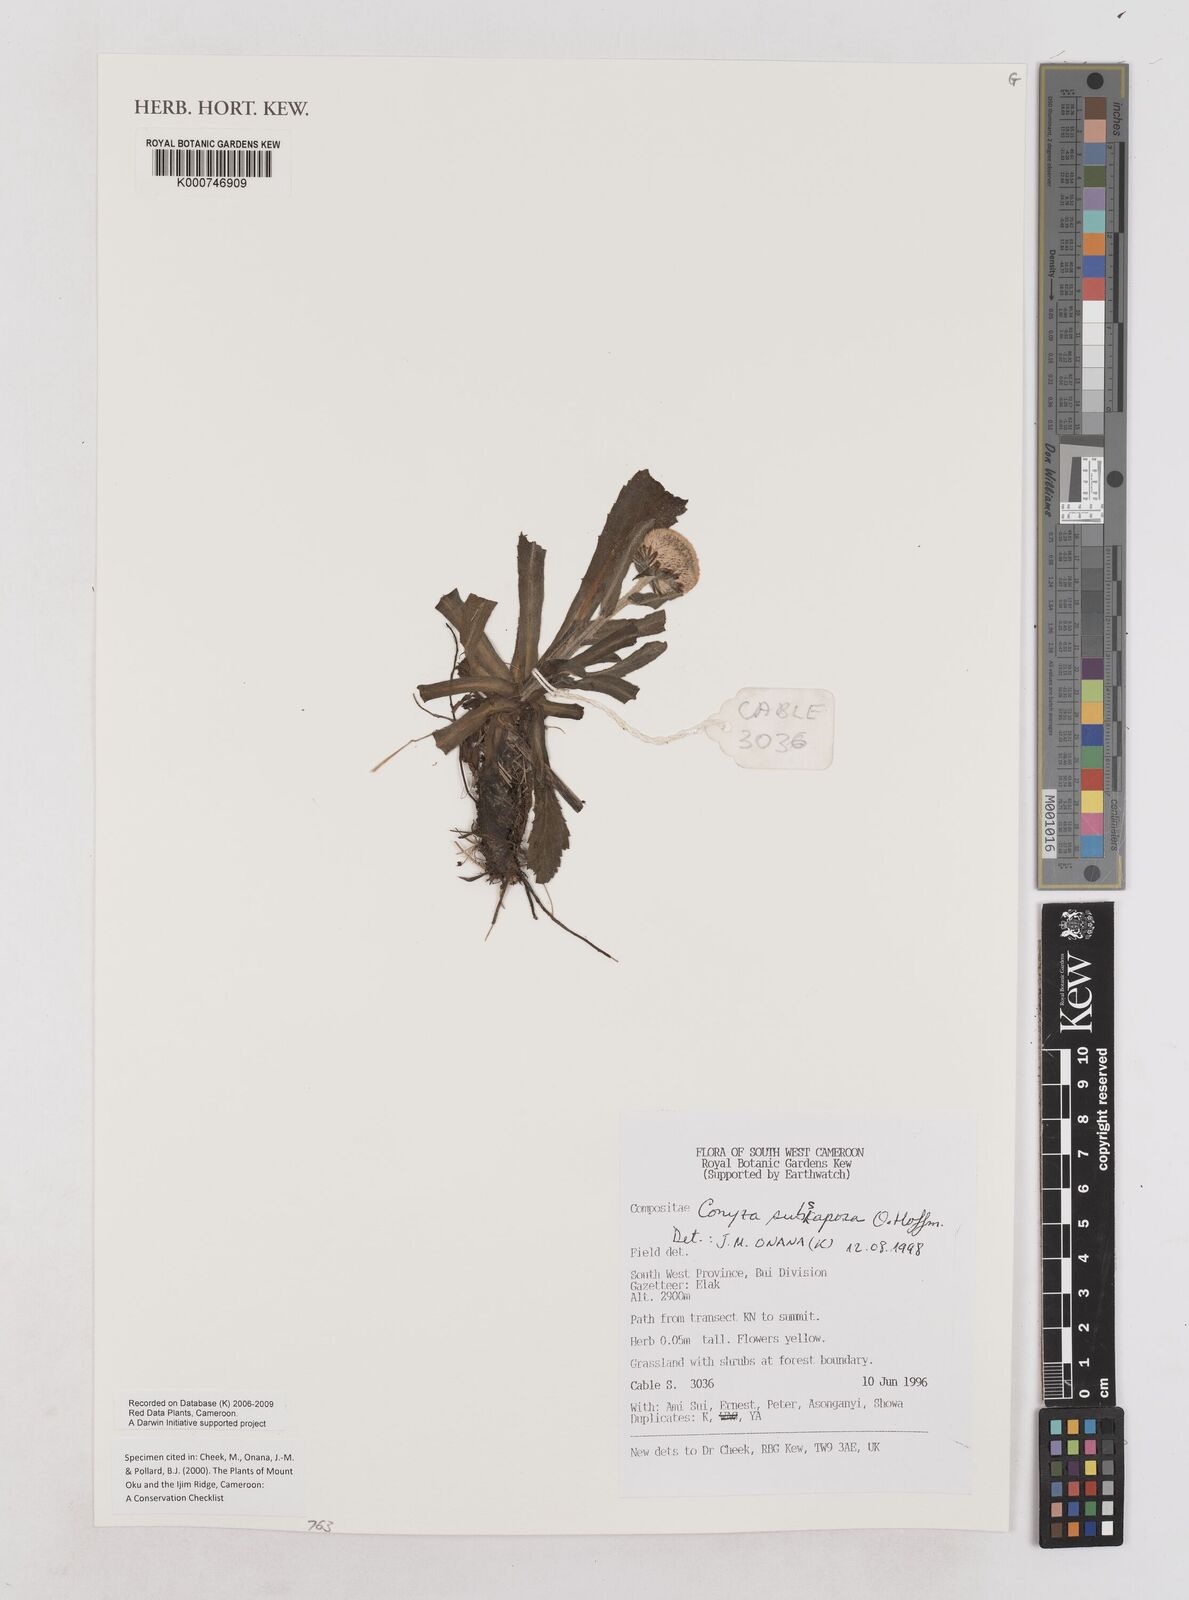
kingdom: Plantae
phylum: Tracheophyta
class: Magnoliopsida
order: Asterales
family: Asteraceae
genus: Eschenbachia
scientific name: Eschenbachia subscaposa
